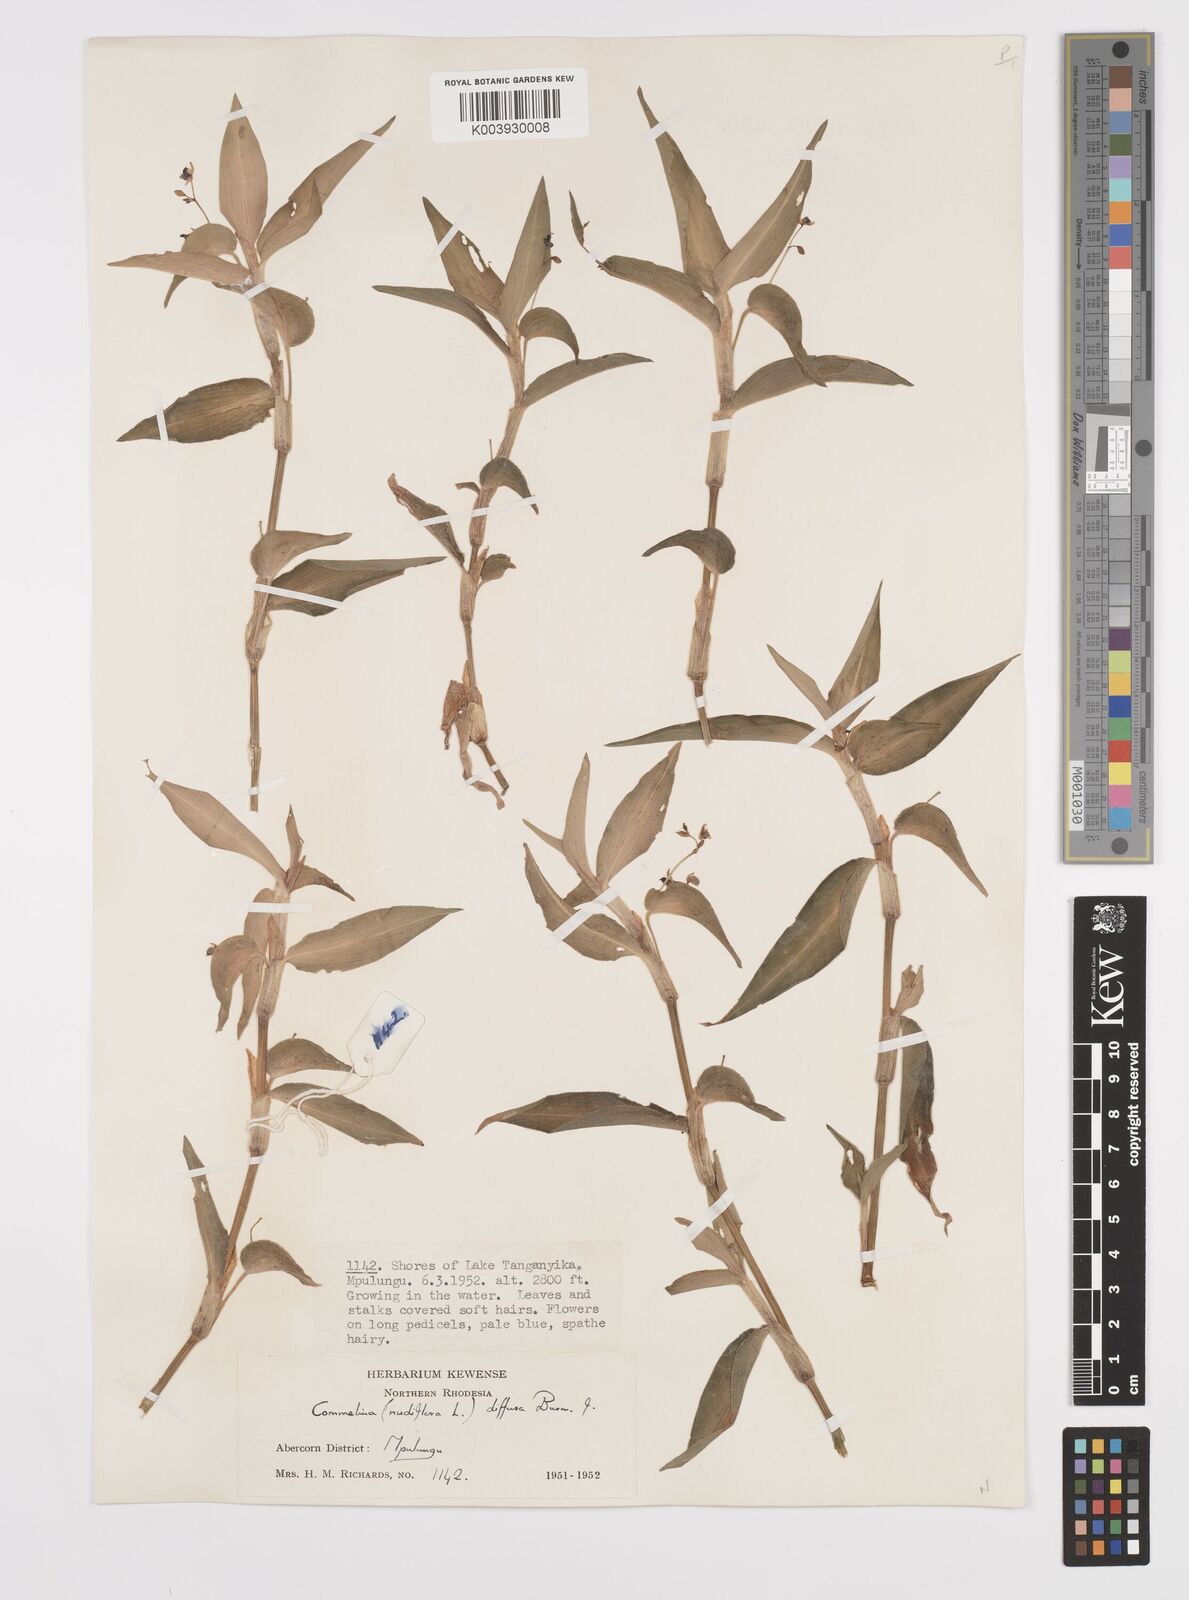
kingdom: Plantae
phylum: Tracheophyta
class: Liliopsida
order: Commelinales
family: Commelinaceae
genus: Commelina
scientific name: Commelina diffusa
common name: Climbing dayflower
